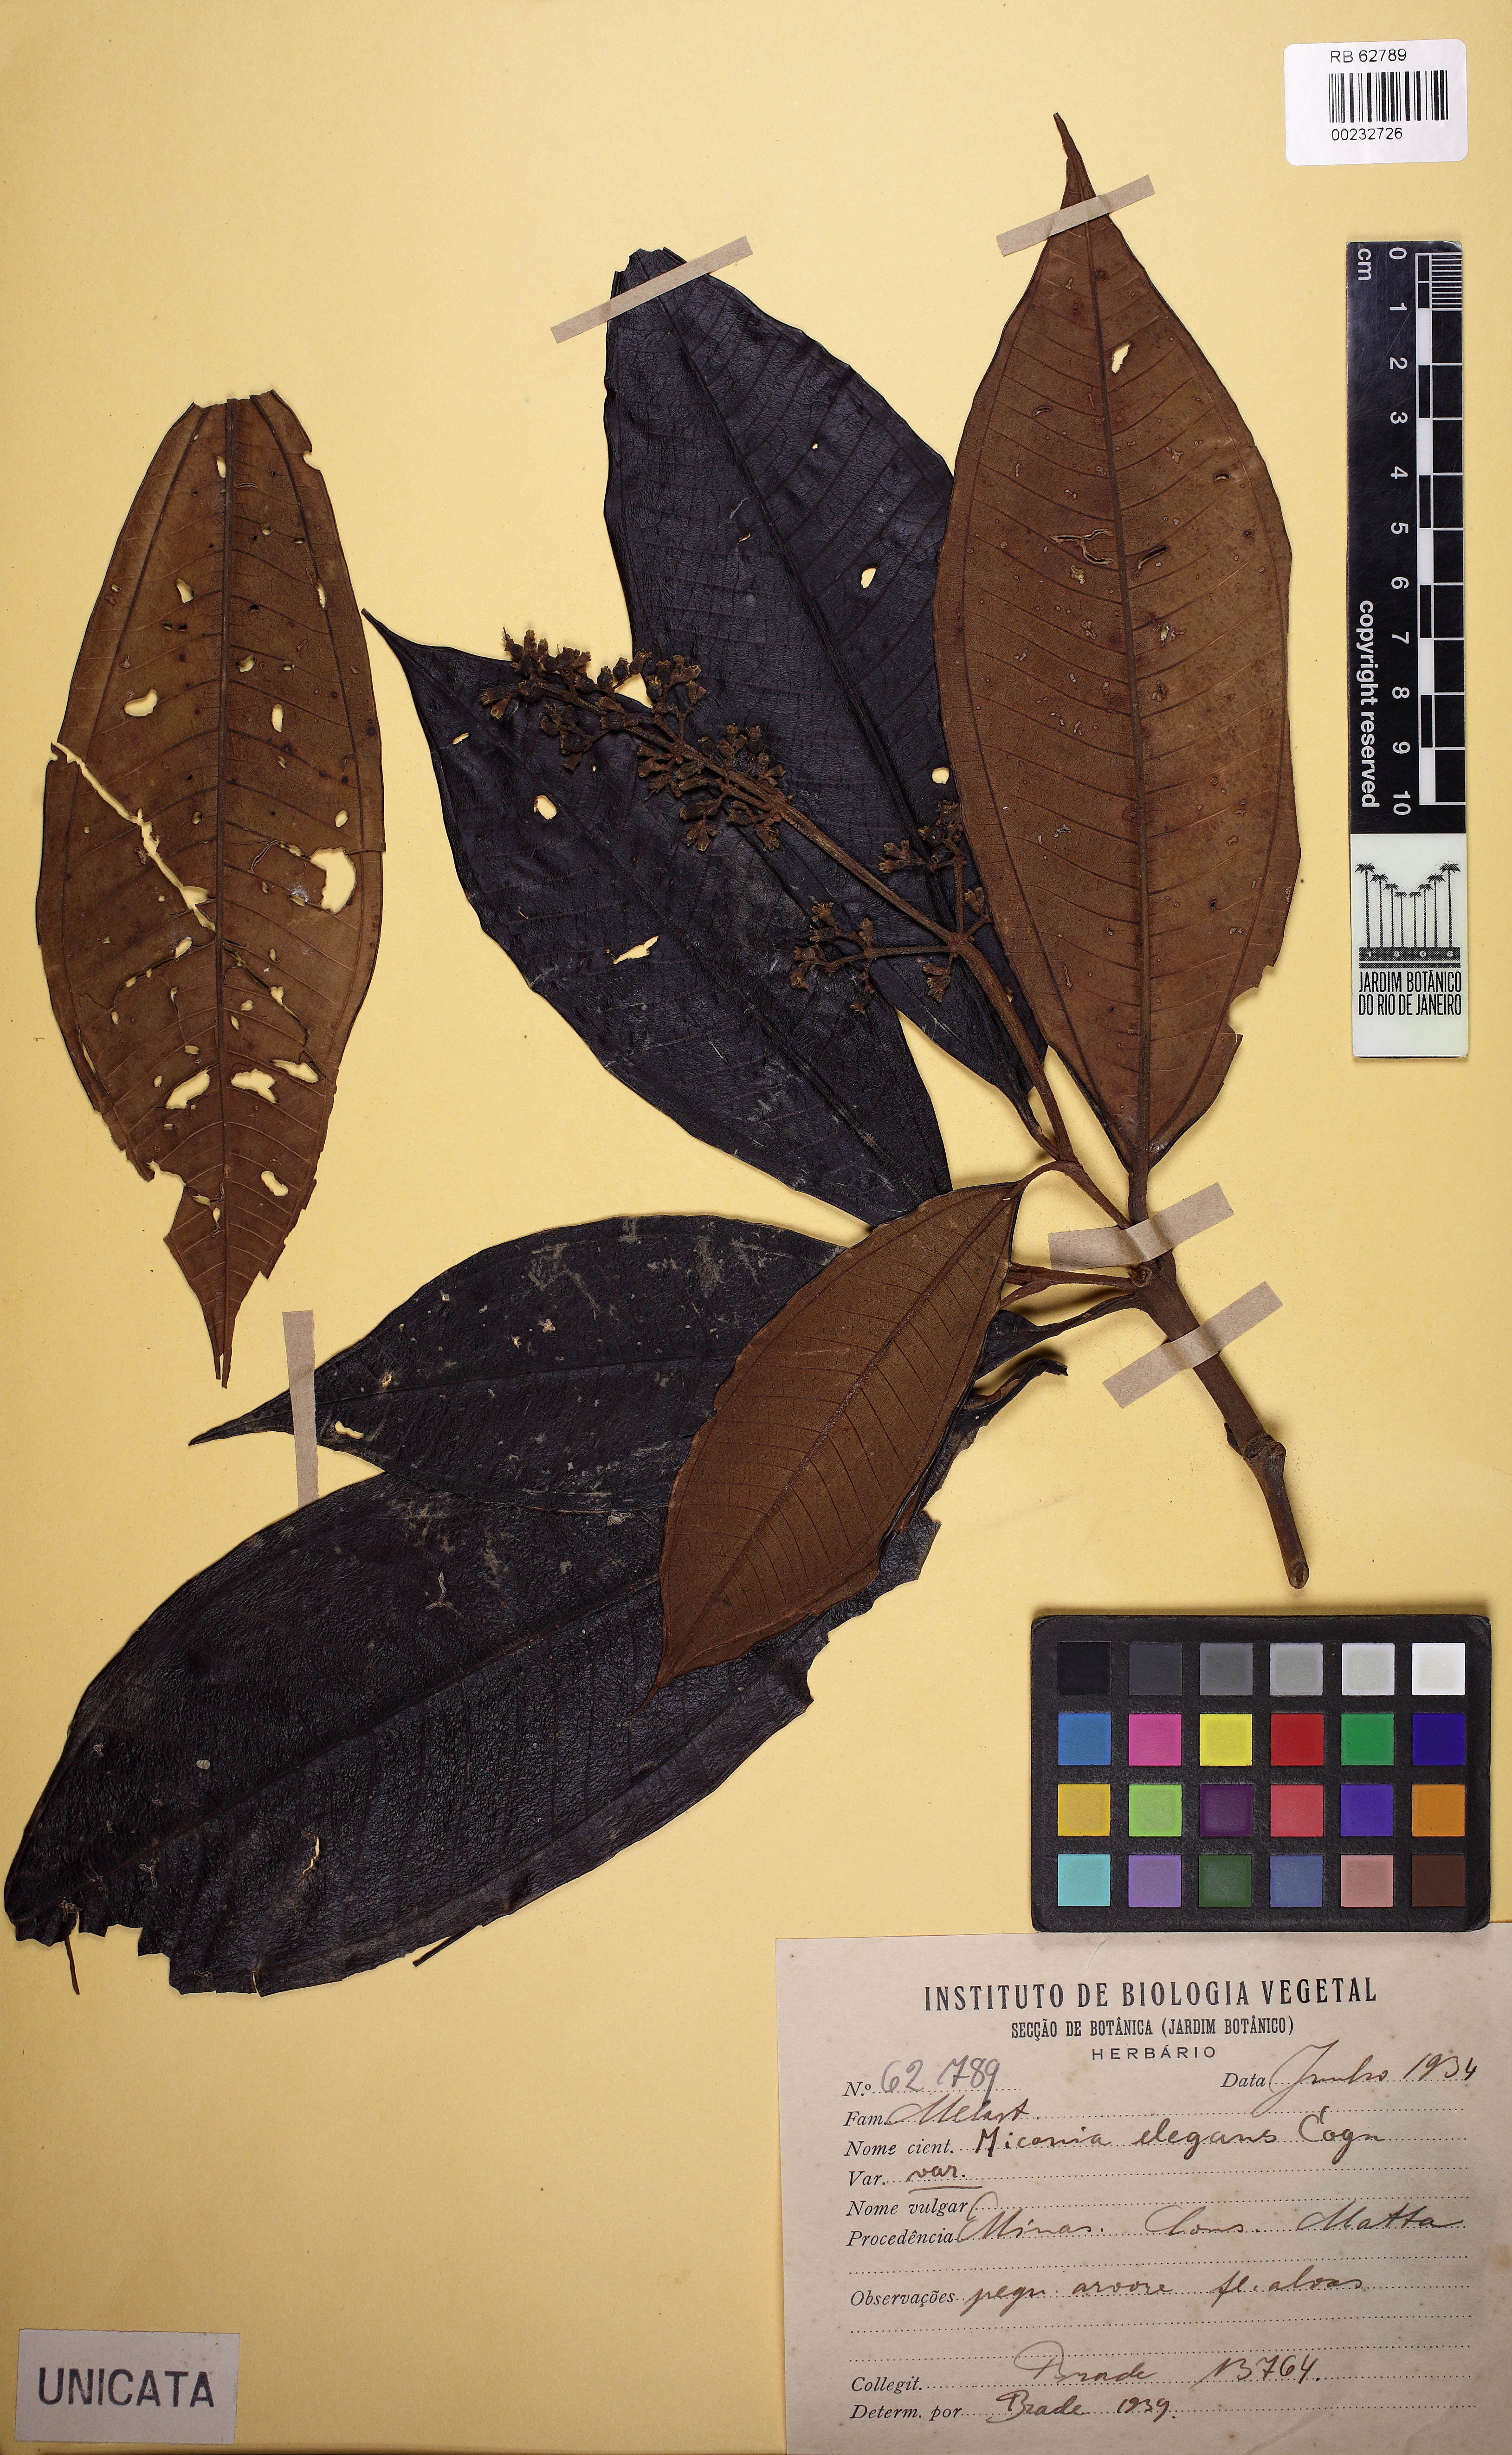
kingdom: Plantae
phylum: Tracheophyta
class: Magnoliopsida
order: Myrtales
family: Melastomataceae
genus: Miconia
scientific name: Miconia elegans
